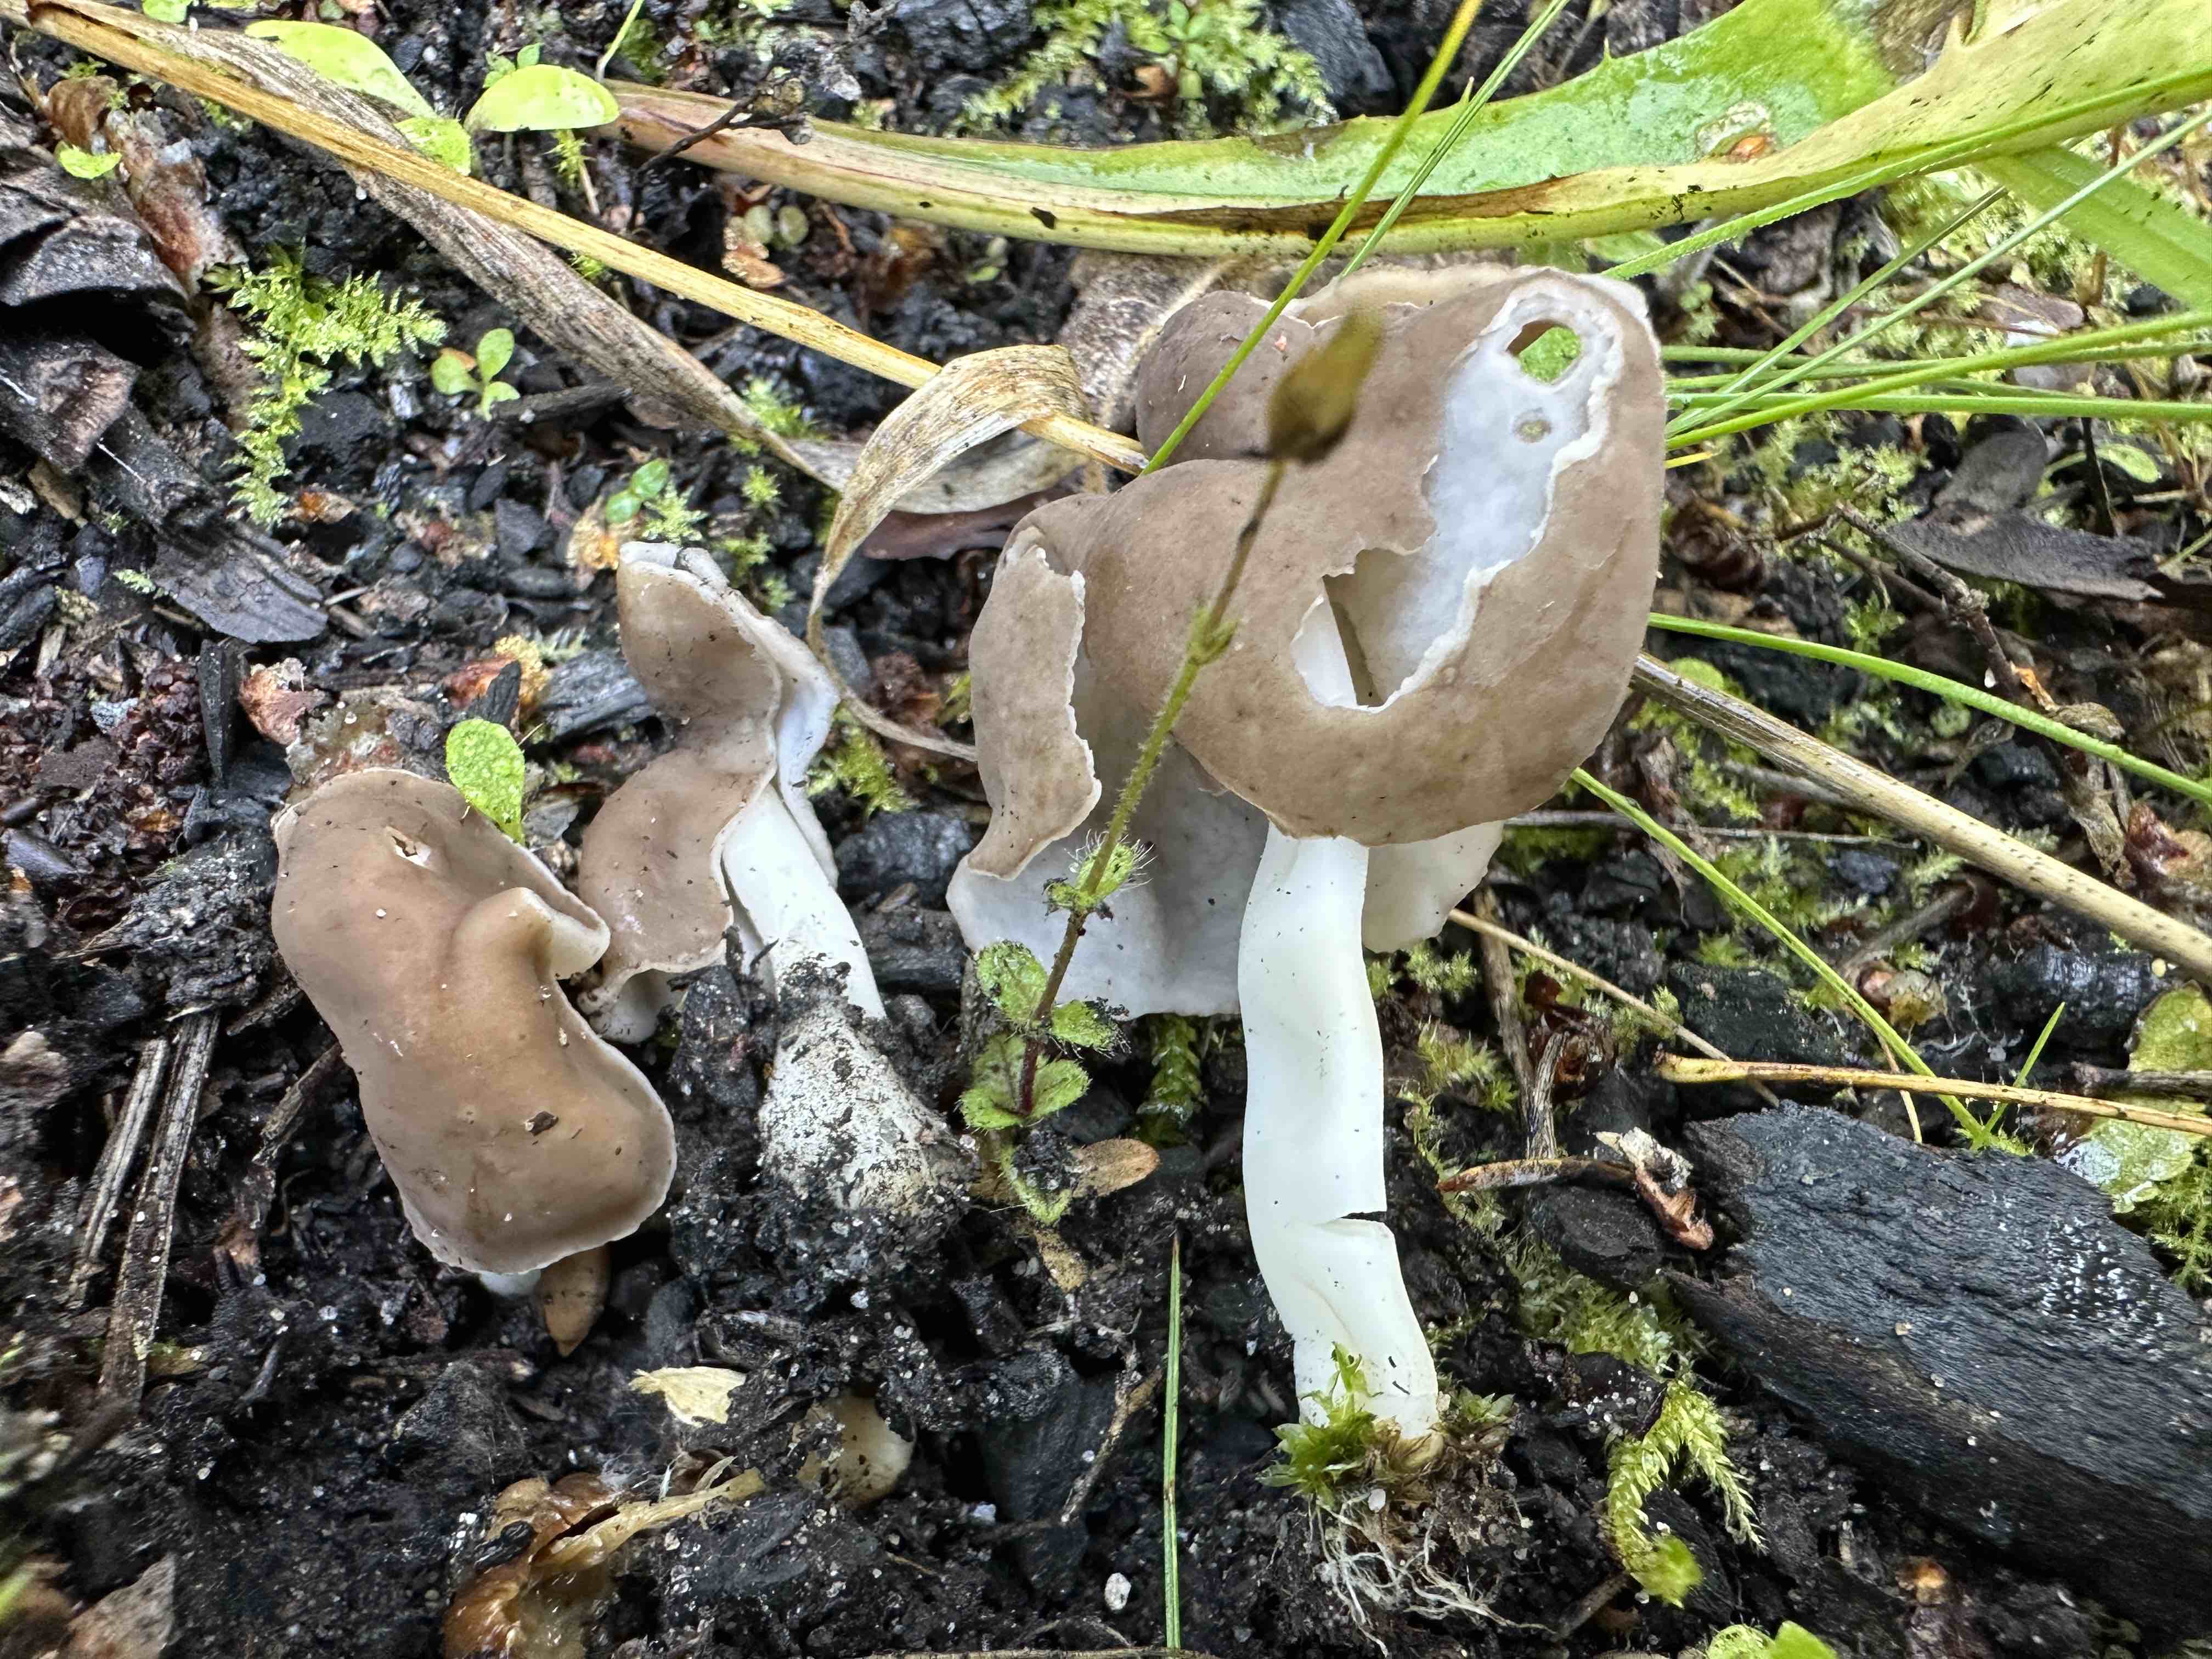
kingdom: Fungi
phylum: Ascomycota
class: Pezizomycetes
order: Pezizales
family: Helvellaceae
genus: Helvella
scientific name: Helvella elastica
